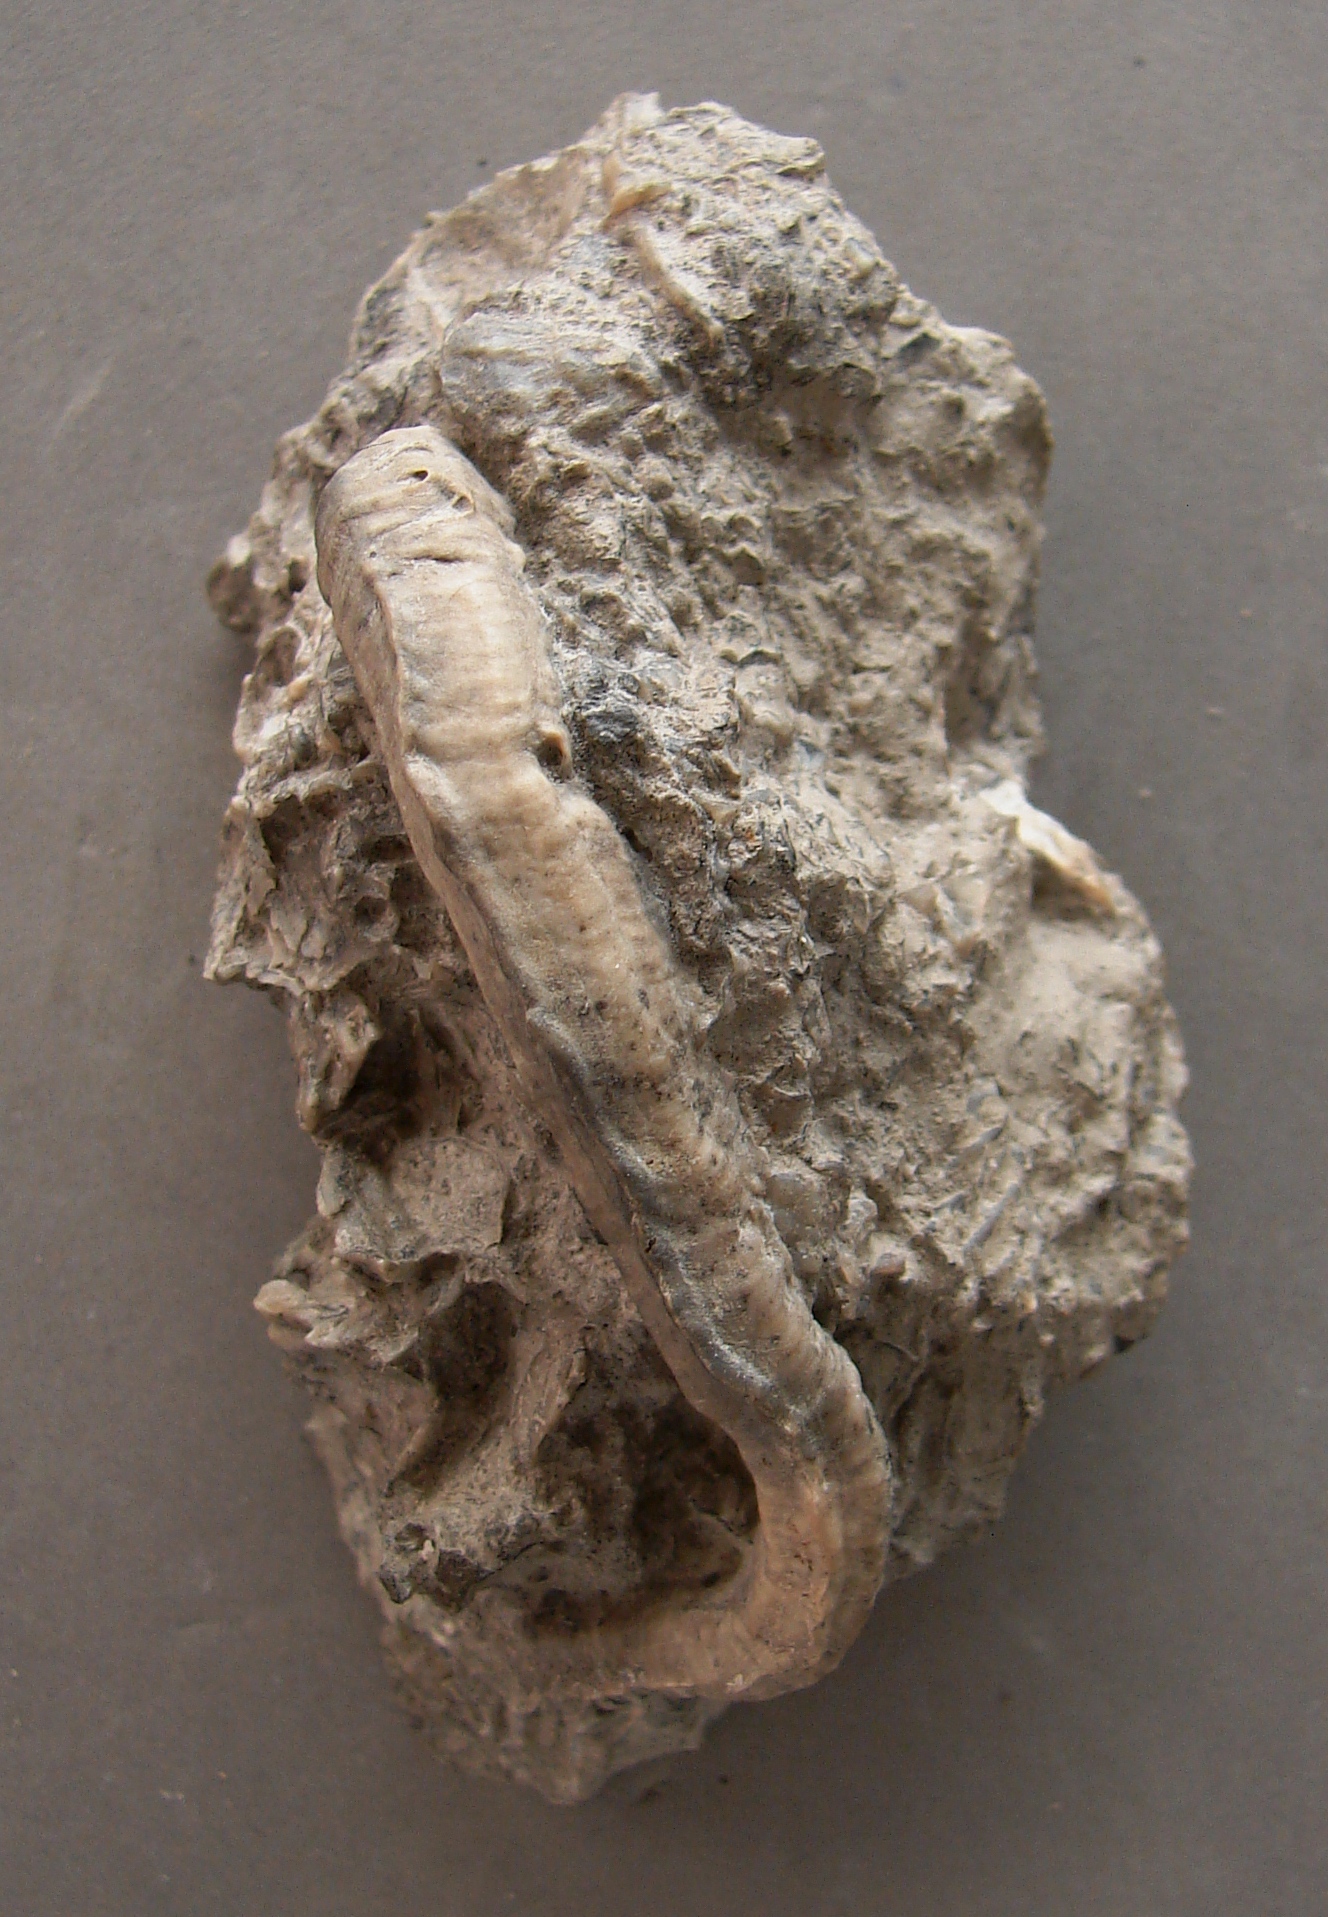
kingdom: Animalia
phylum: Annelida
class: Polychaeta
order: Sabellida
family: Sabellidae
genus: Glomerula
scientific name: Glomerula gordialis
